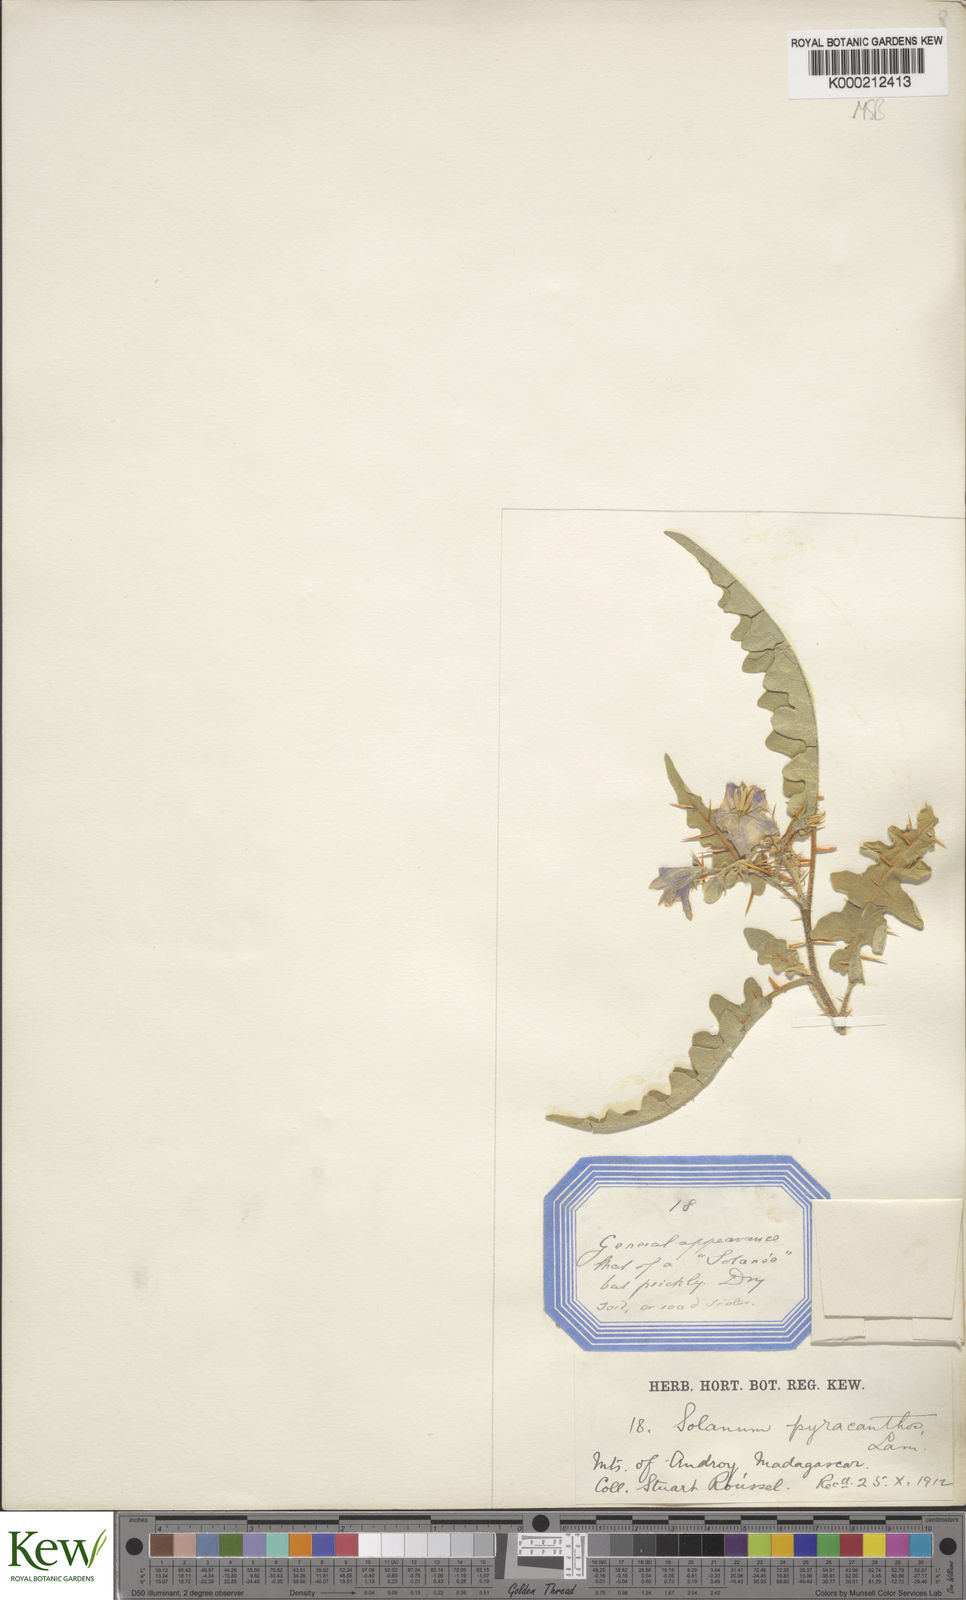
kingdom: Plantae
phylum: Tracheophyta
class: Magnoliopsida
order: Solanales
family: Solanaceae
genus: Solanum
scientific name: Solanum pyracanthos
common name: Porcupine-tomato
